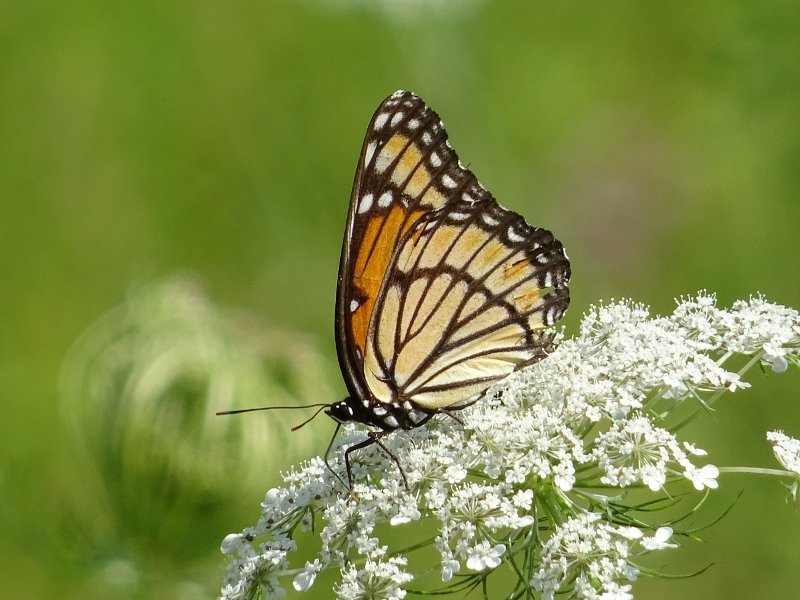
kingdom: Animalia
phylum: Arthropoda
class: Insecta
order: Lepidoptera
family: Nymphalidae
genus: Limenitis
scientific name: Limenitis archippus
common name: Viceroy
